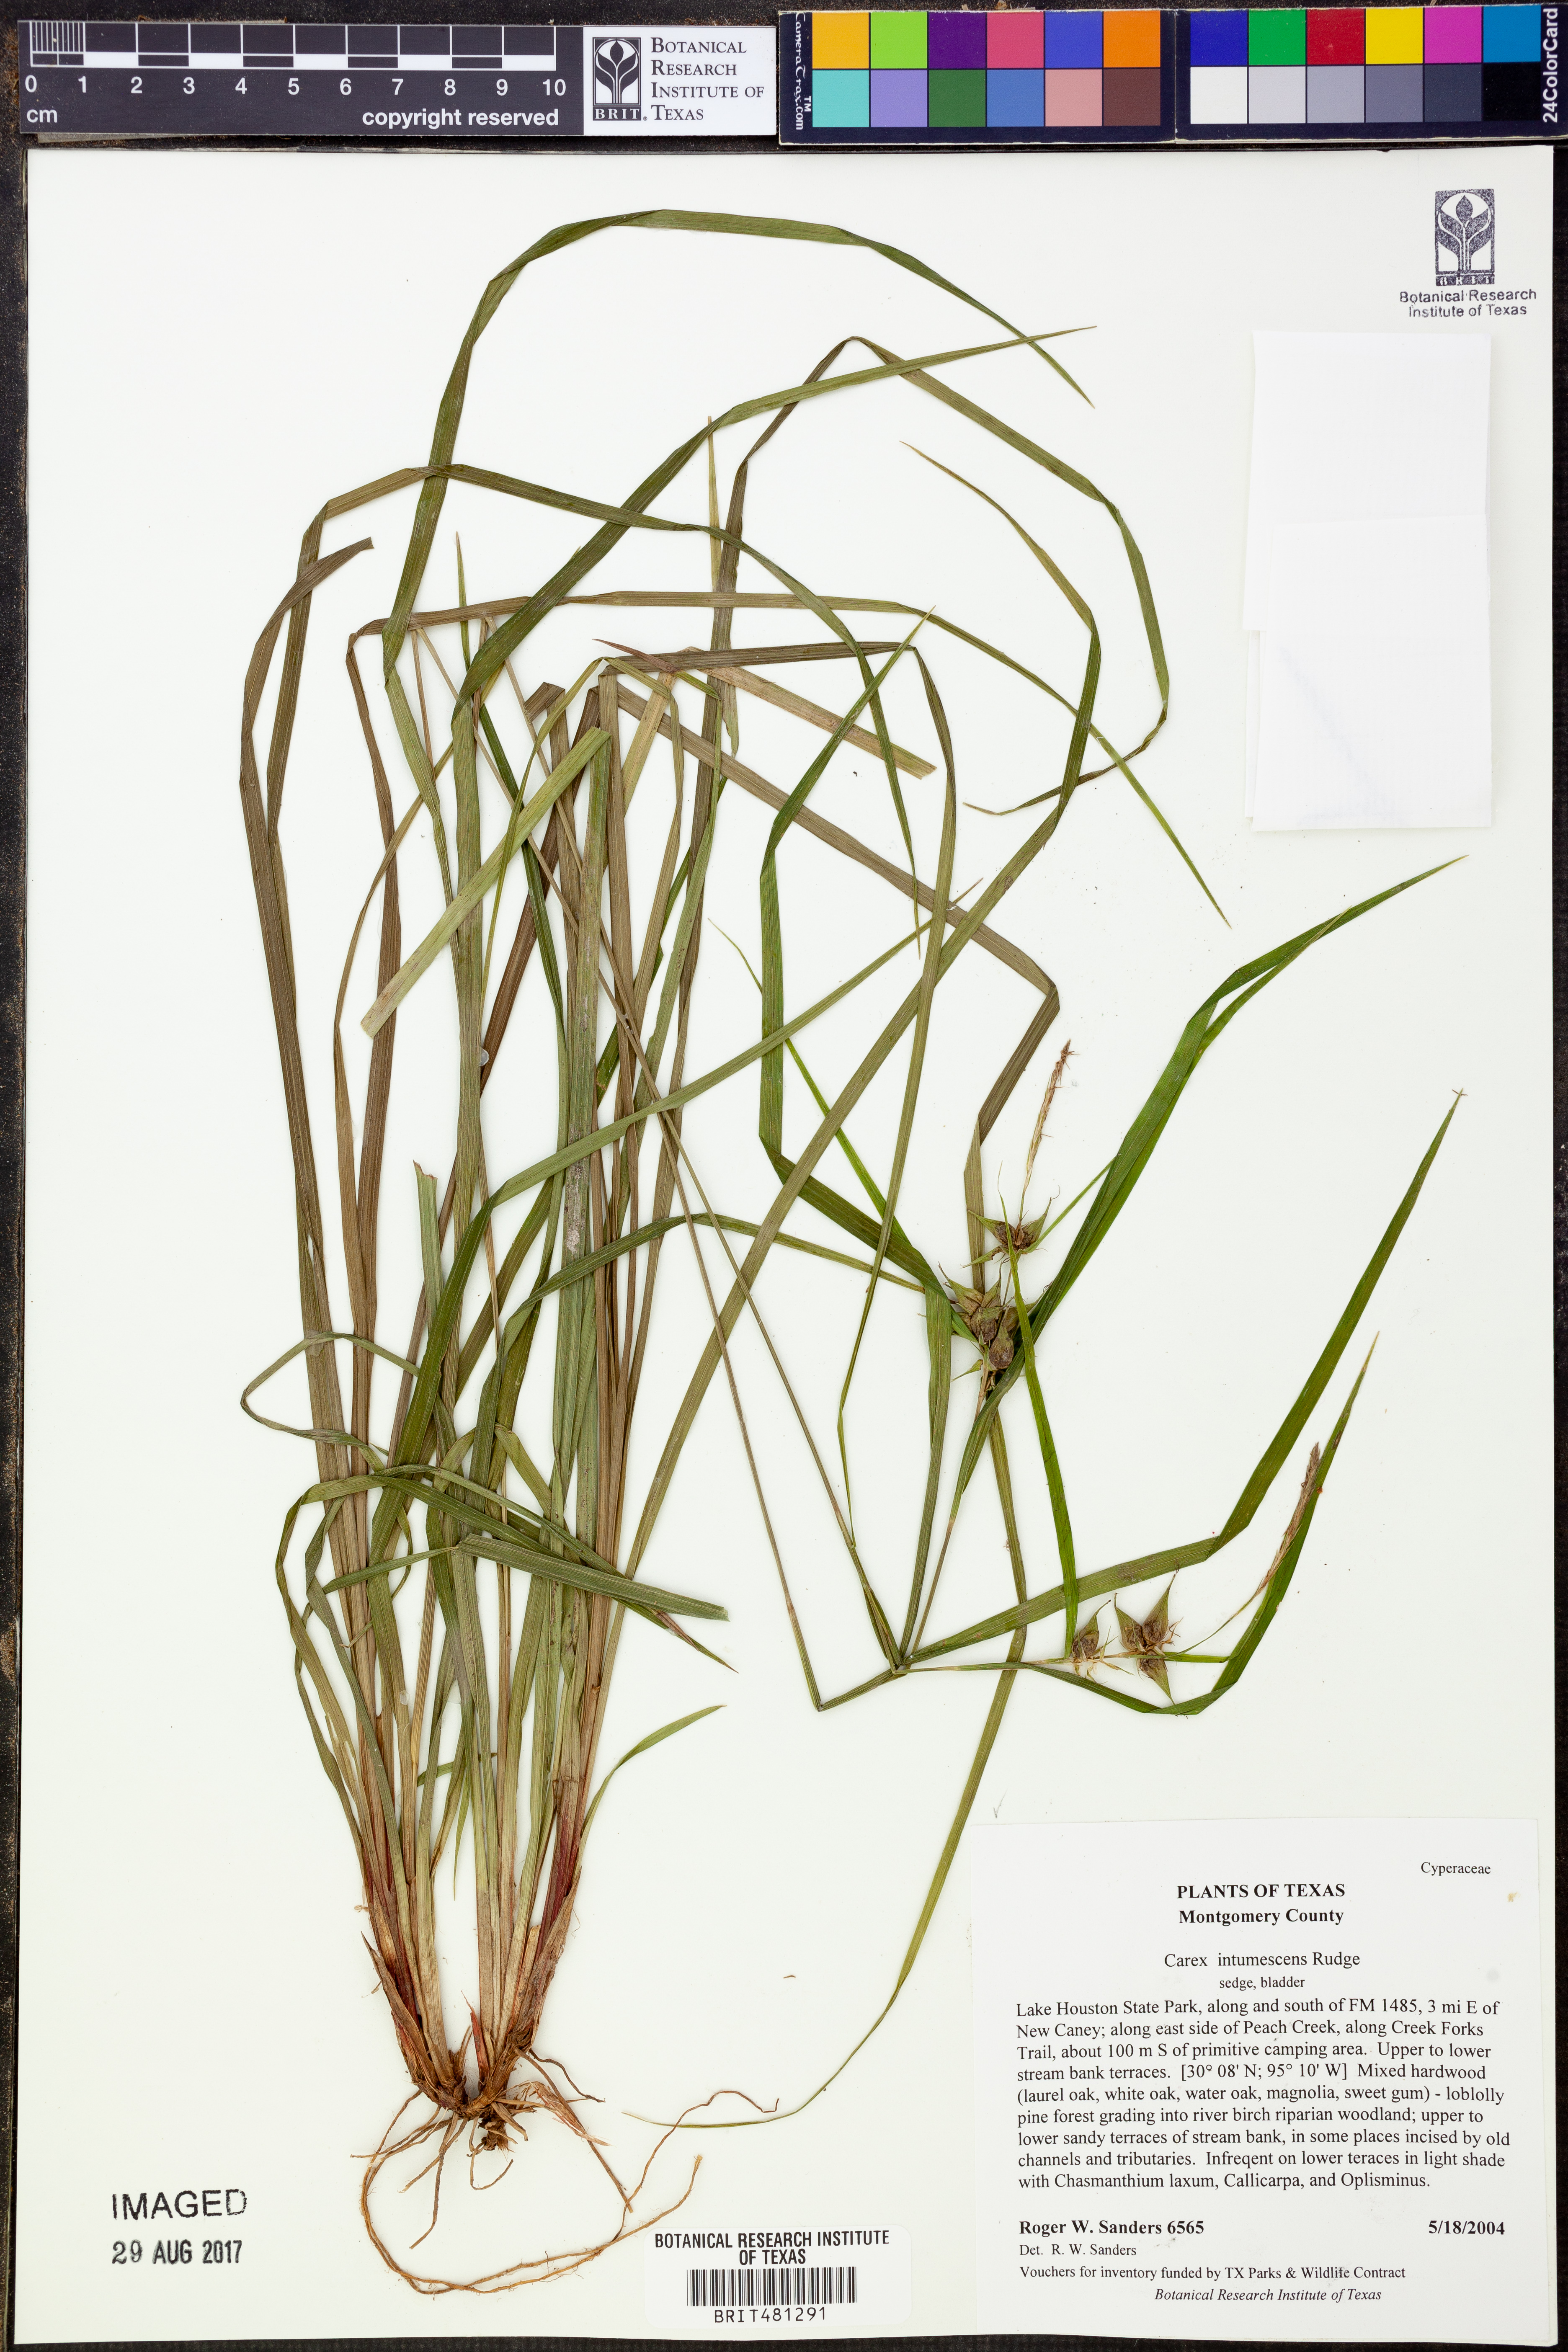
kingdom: Plantae
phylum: Tracheophyta
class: Liliopsida
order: Poales
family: Cyperaceae
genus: Carex
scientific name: Carex intumescens
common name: Greater bladder sedge
